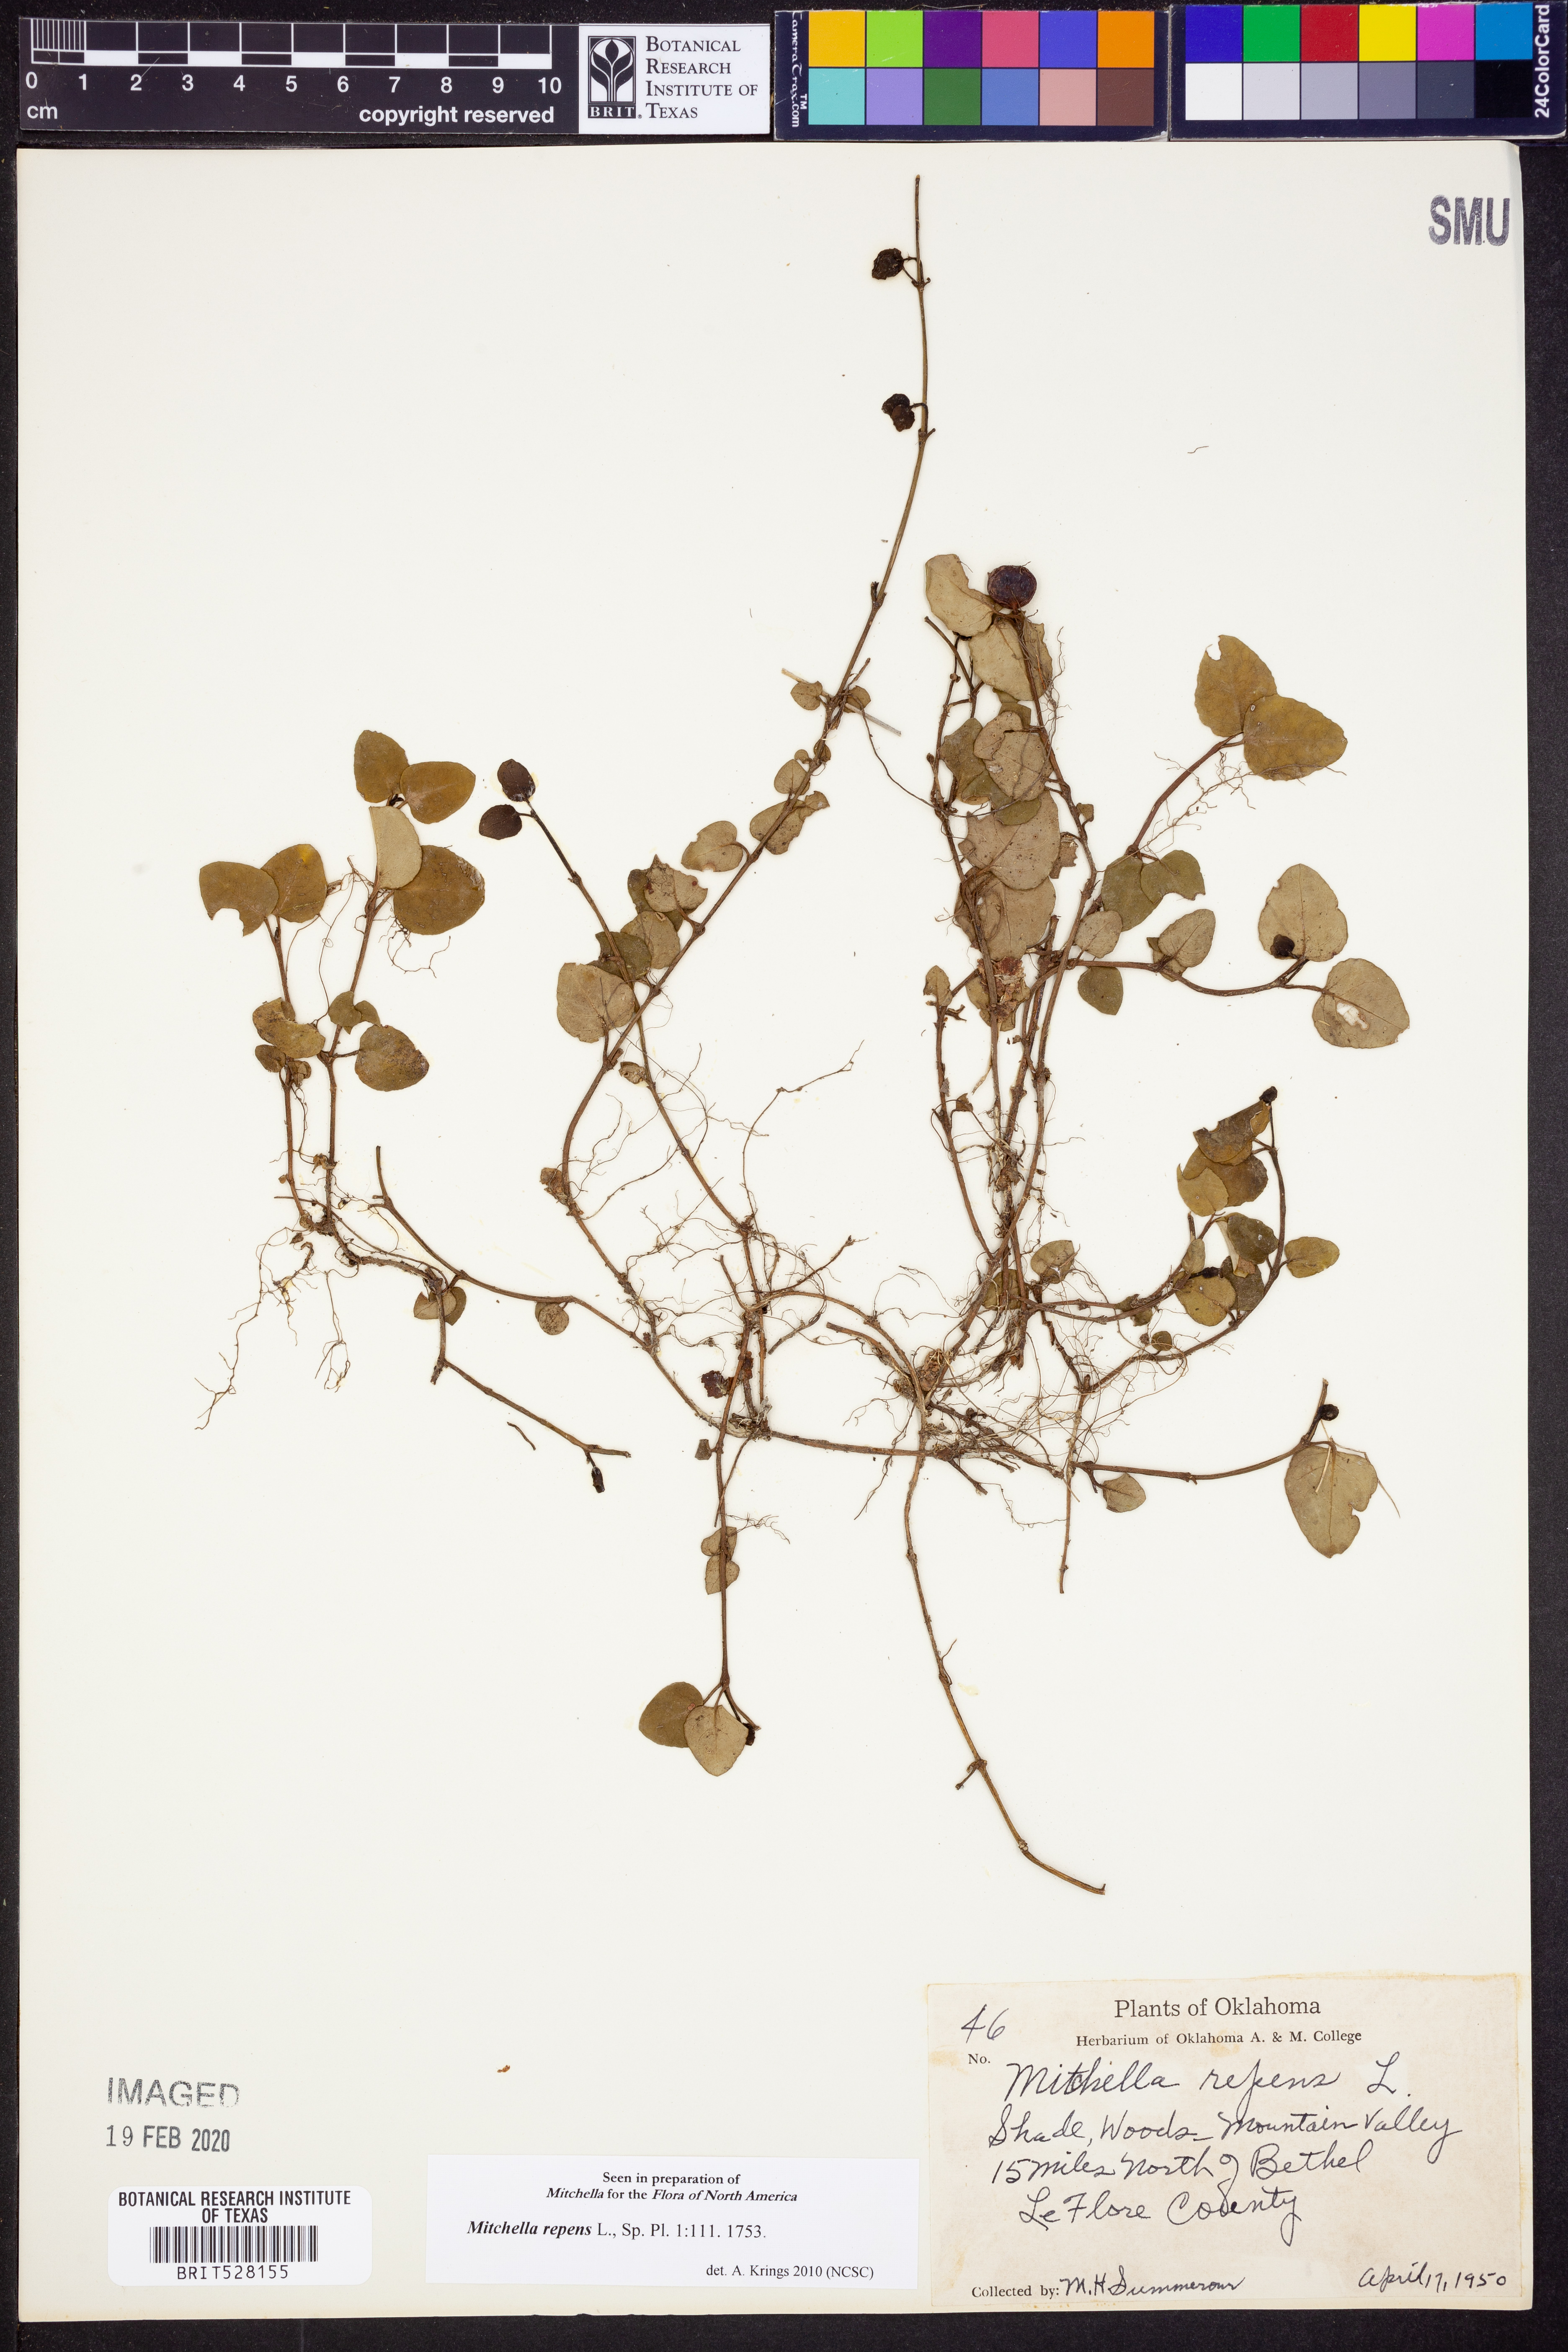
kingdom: Plantae
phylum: Tracheophyta
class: Magnoliopsida
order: Gentianales
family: Rubiaceae
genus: Mitchella
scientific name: Mitchella repens
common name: Partridge-berry
